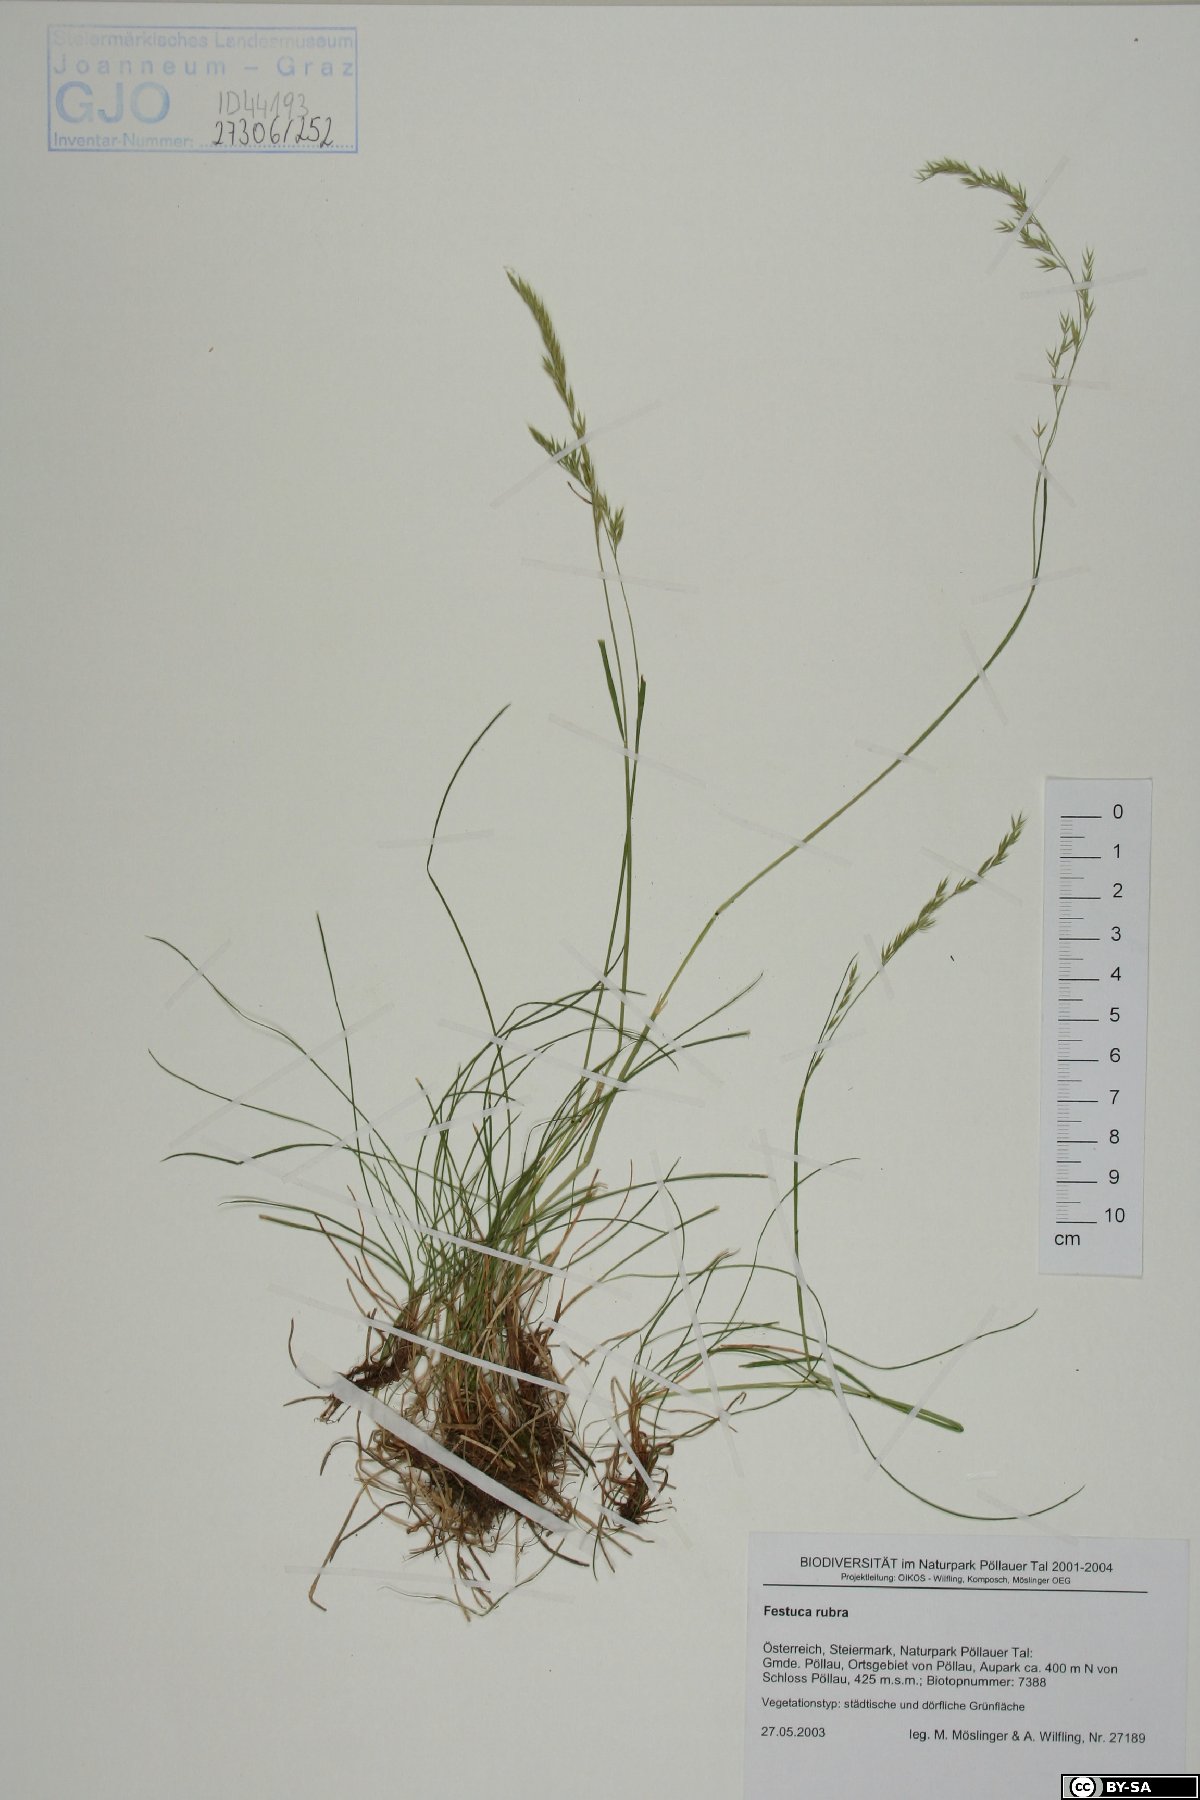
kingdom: Plantae
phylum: Tracheophyta
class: Liliopsida
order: Poales
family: Poaceae
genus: Festuca
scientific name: Festuca rubra
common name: Red fescue
